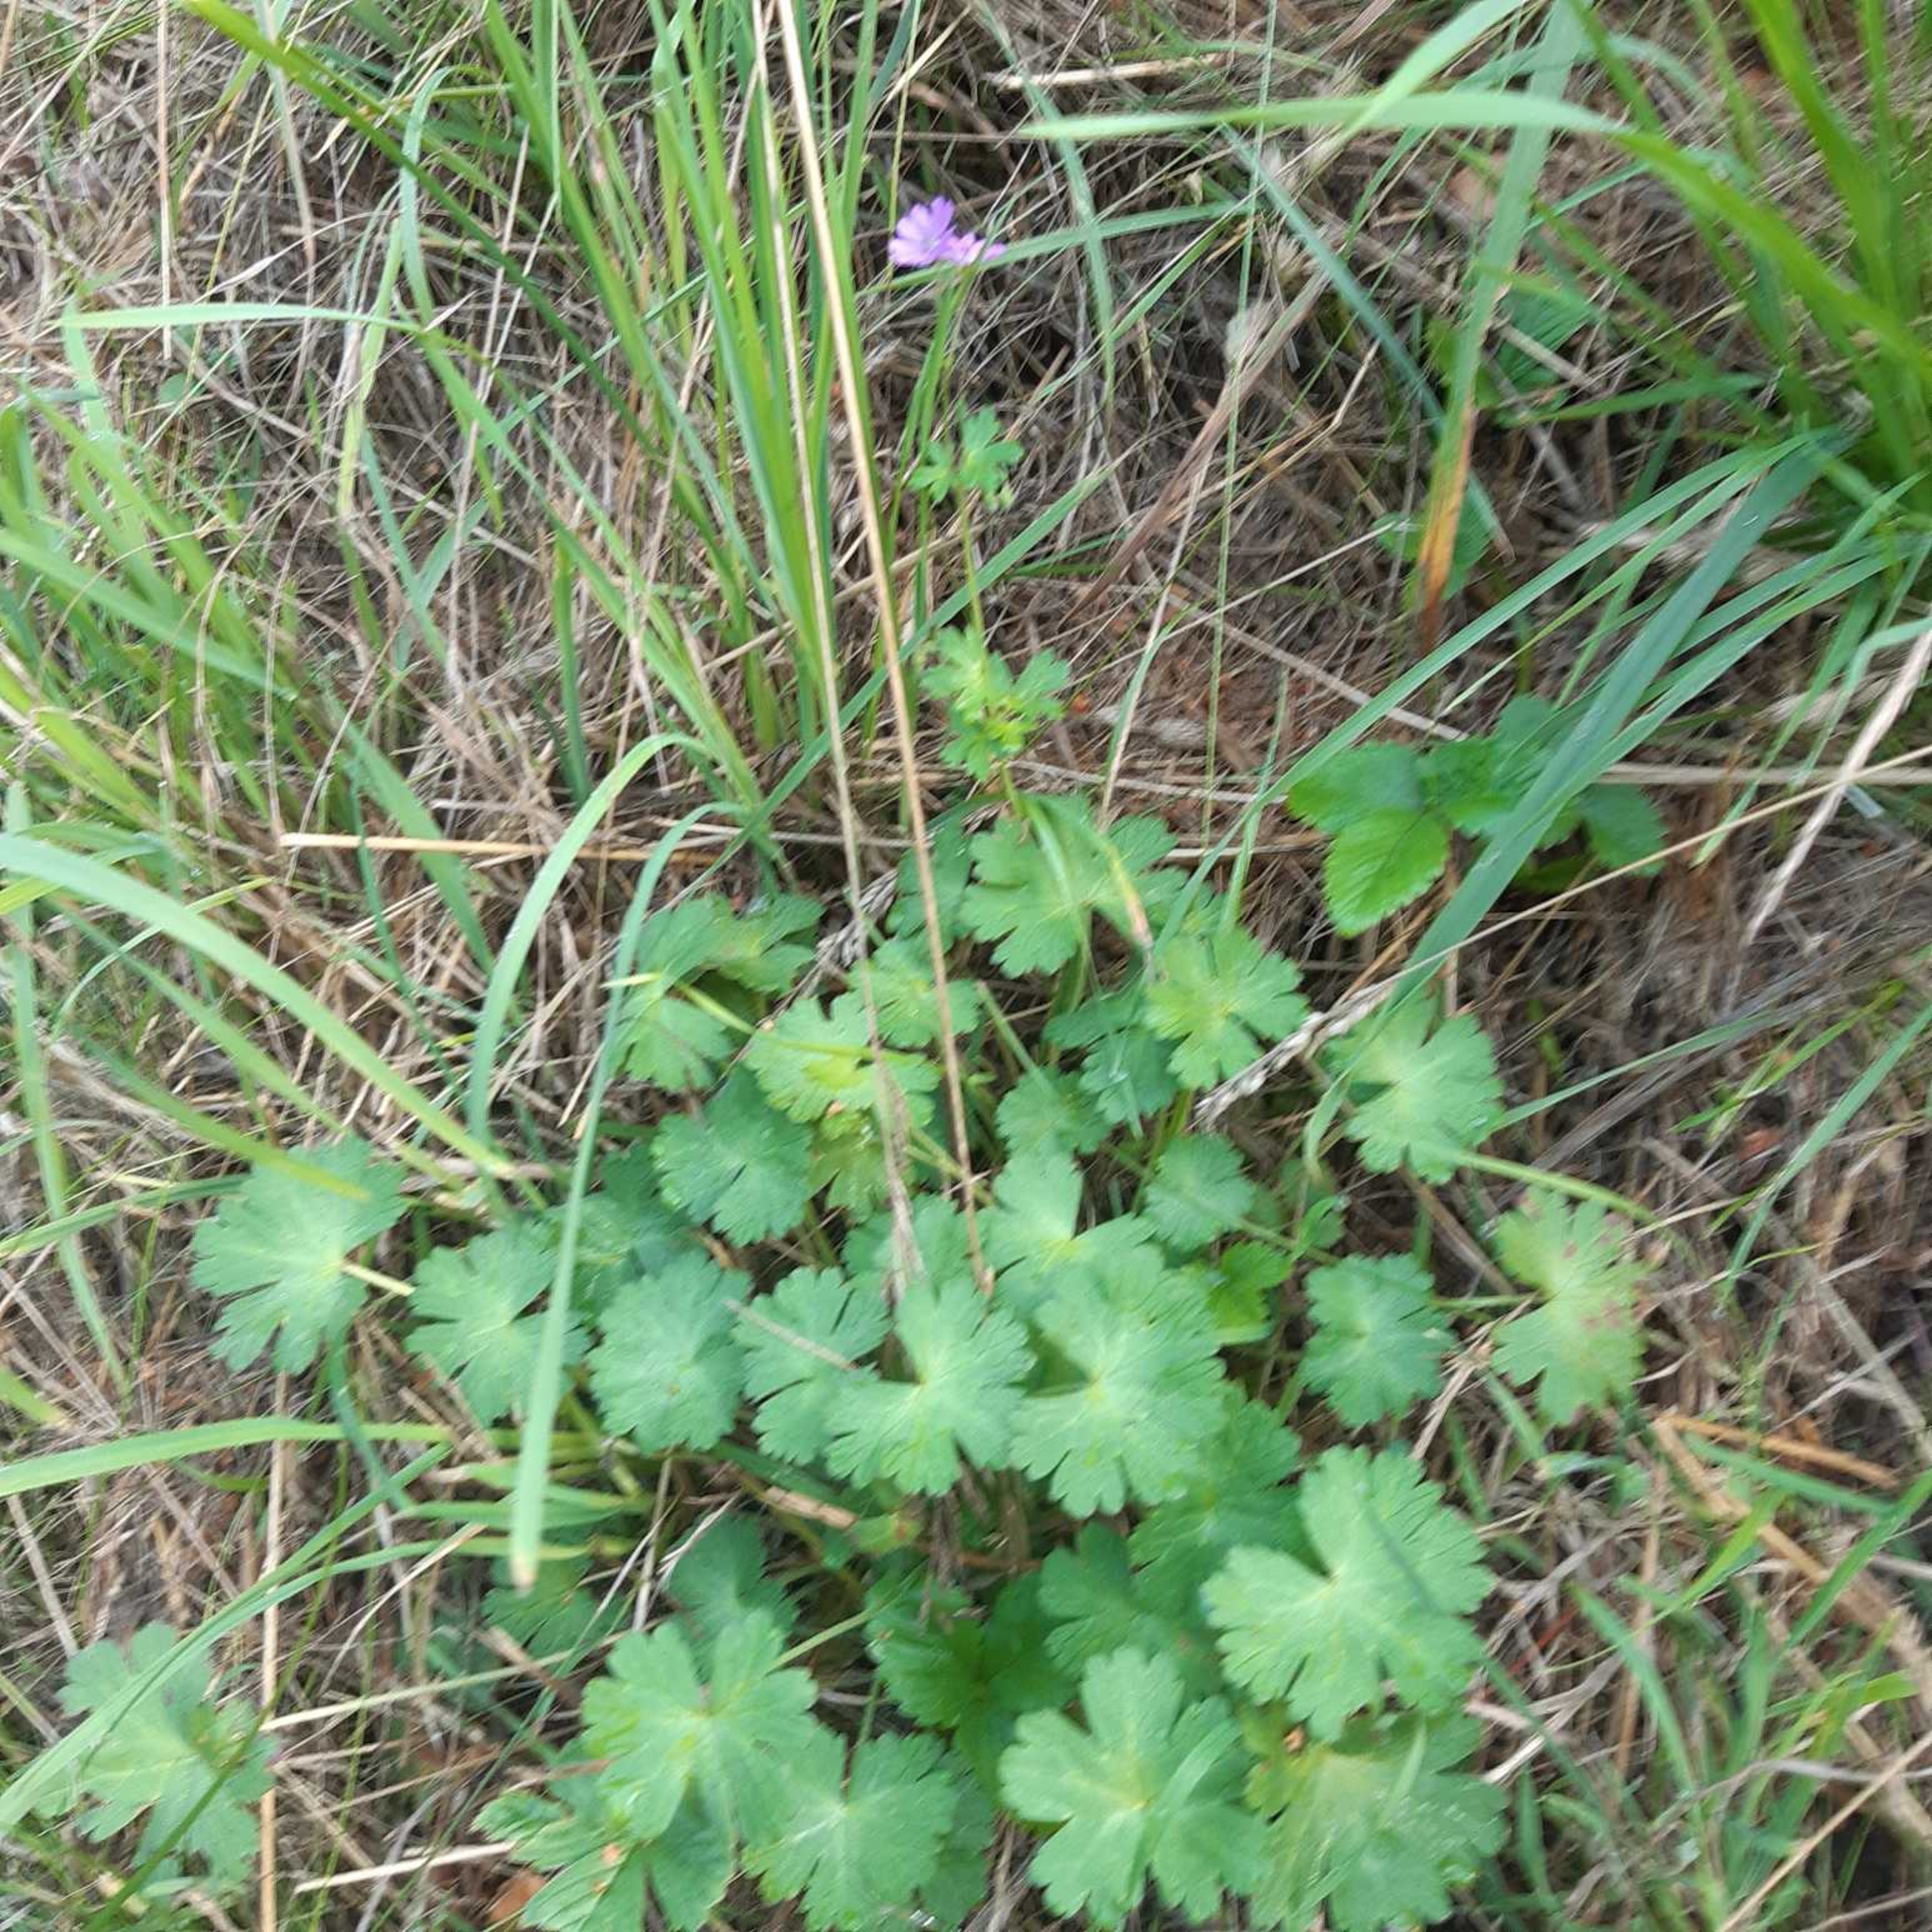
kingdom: Plantae
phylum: Tracheophyta
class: Magnoliopsida
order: Geraniales
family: Geraniaceae
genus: Geranium
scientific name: Geranium pyrenaicum
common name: Pyrenæisk storkenæb
